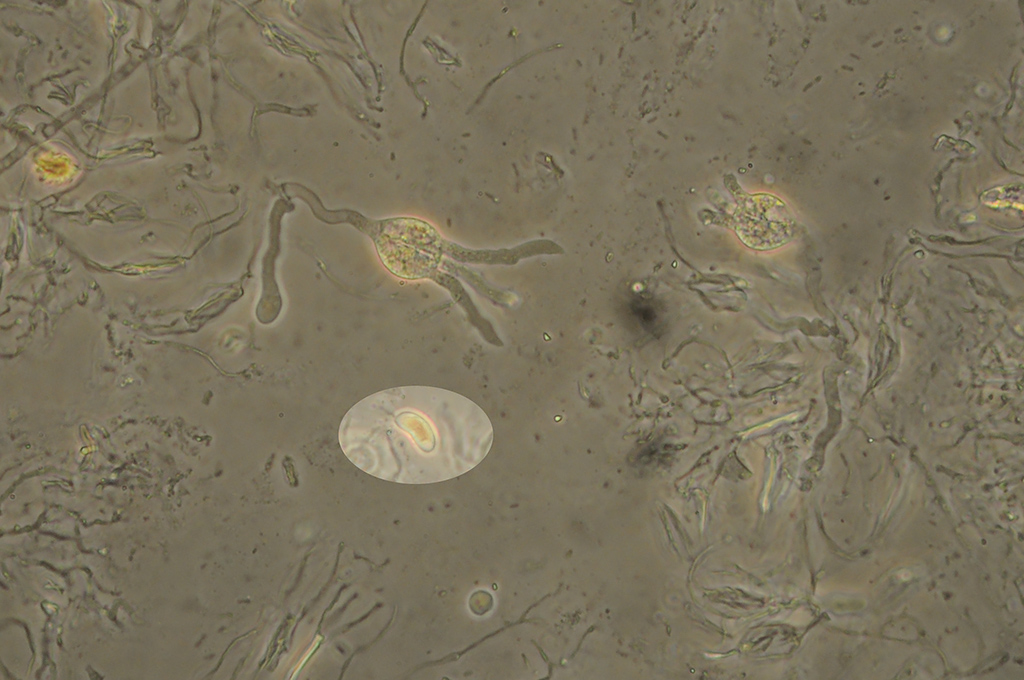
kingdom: Fungi
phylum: Basidiomycota
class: Agaricomycetes
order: Auriculariales
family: Hyaloriaceae
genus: Myxarium
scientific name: Myxarium hyalinum
